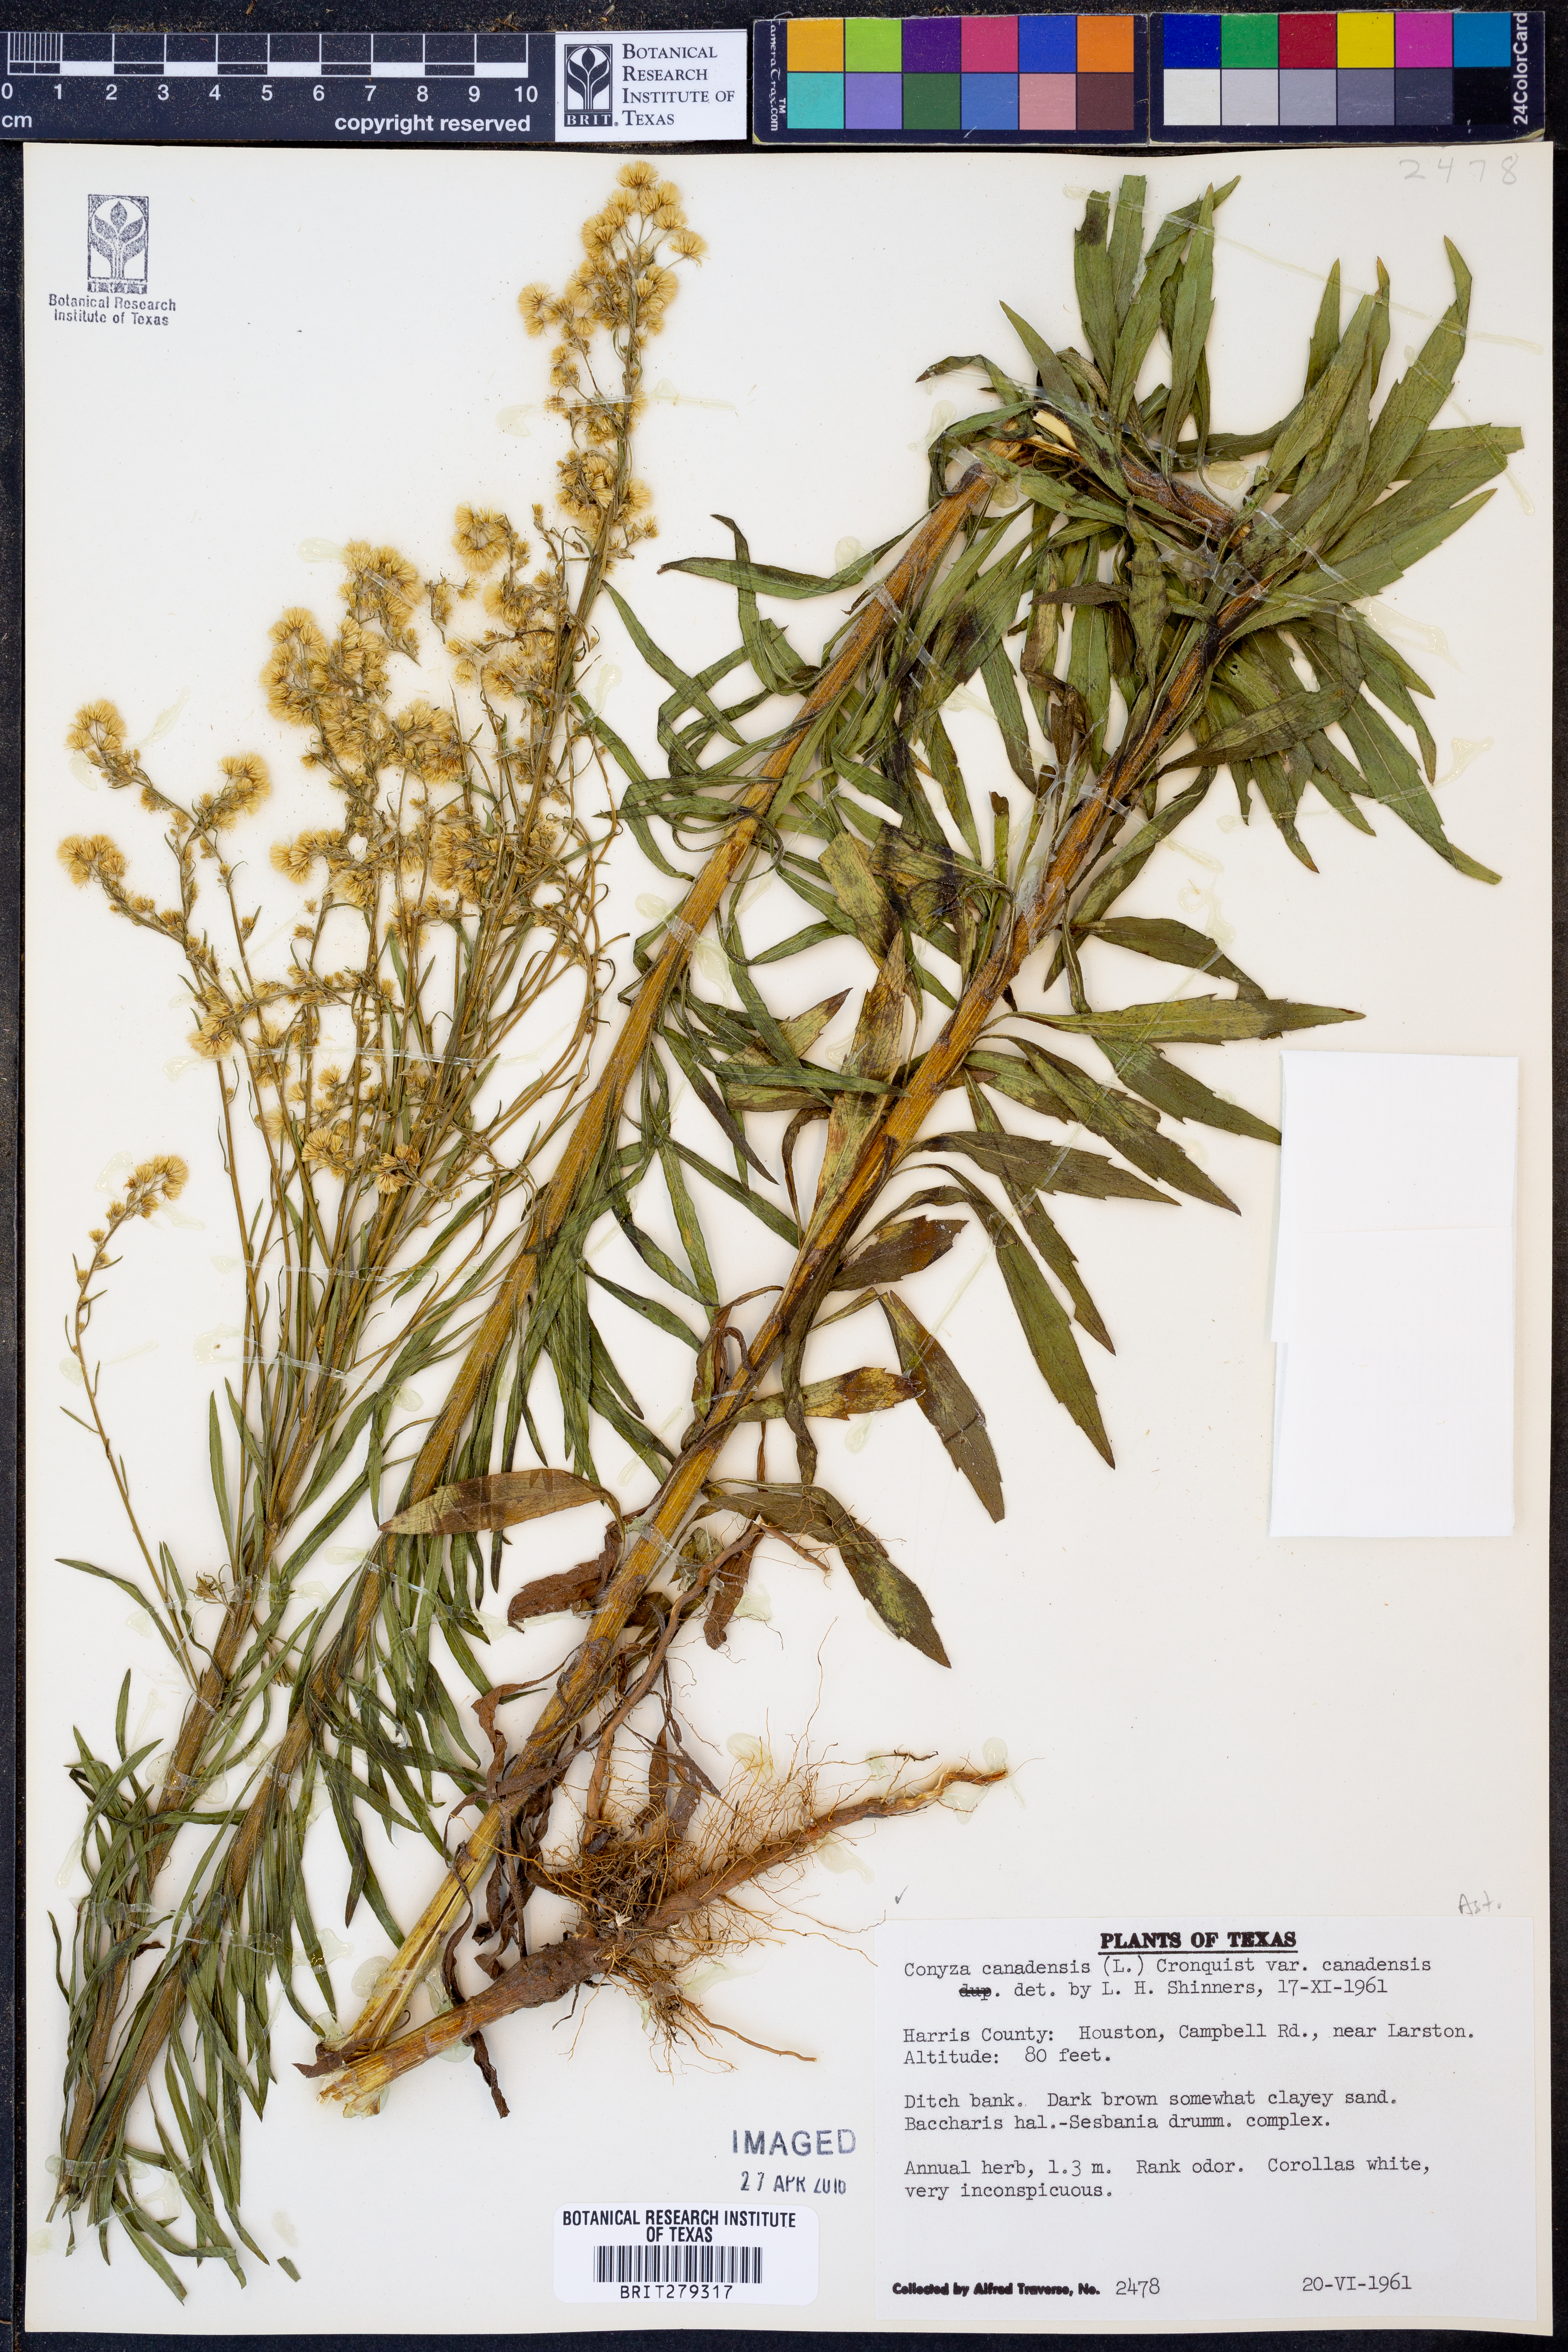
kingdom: Plantae
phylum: Tracheophyta
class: Magnoliopsida
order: Asterales
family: Asteraceae
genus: Erigeron
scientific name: Erigeron canadensis
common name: Canadian fleabane
